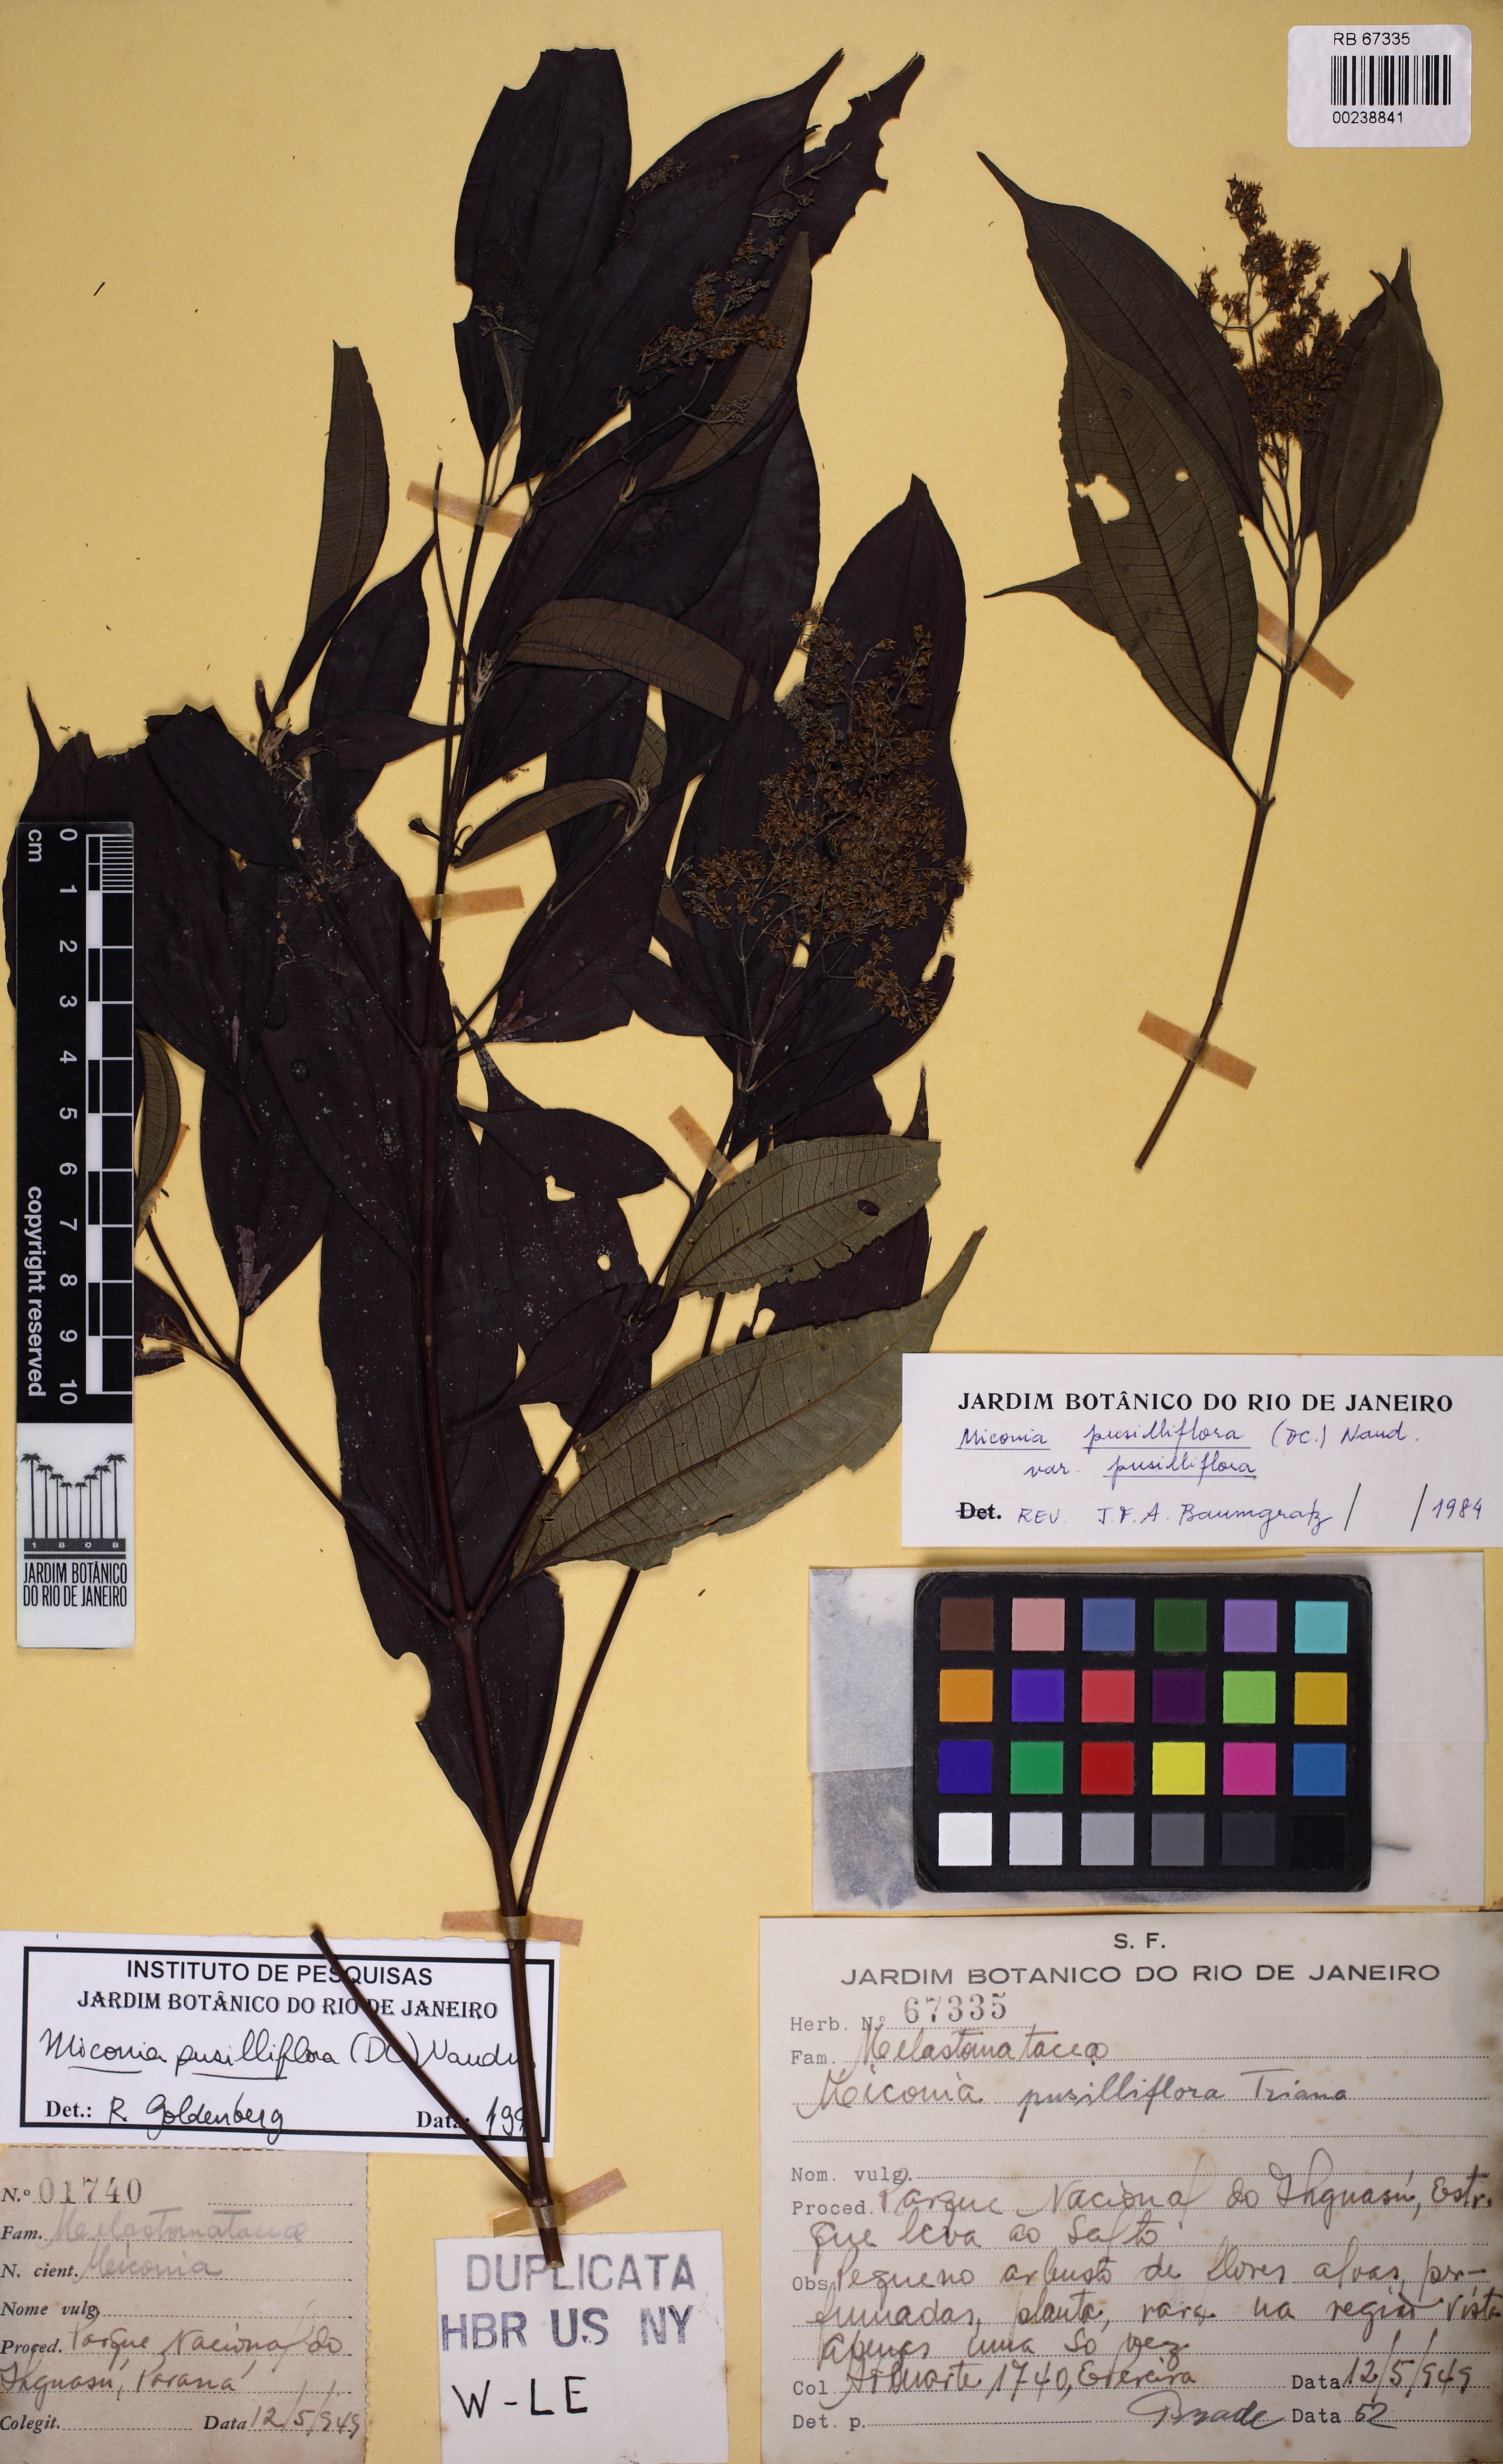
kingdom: Plantae
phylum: Tracheophyta
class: Magnoliopsida
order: Myrtales
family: Melastomataceae
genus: Miconia
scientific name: Miconia pusilliflora
